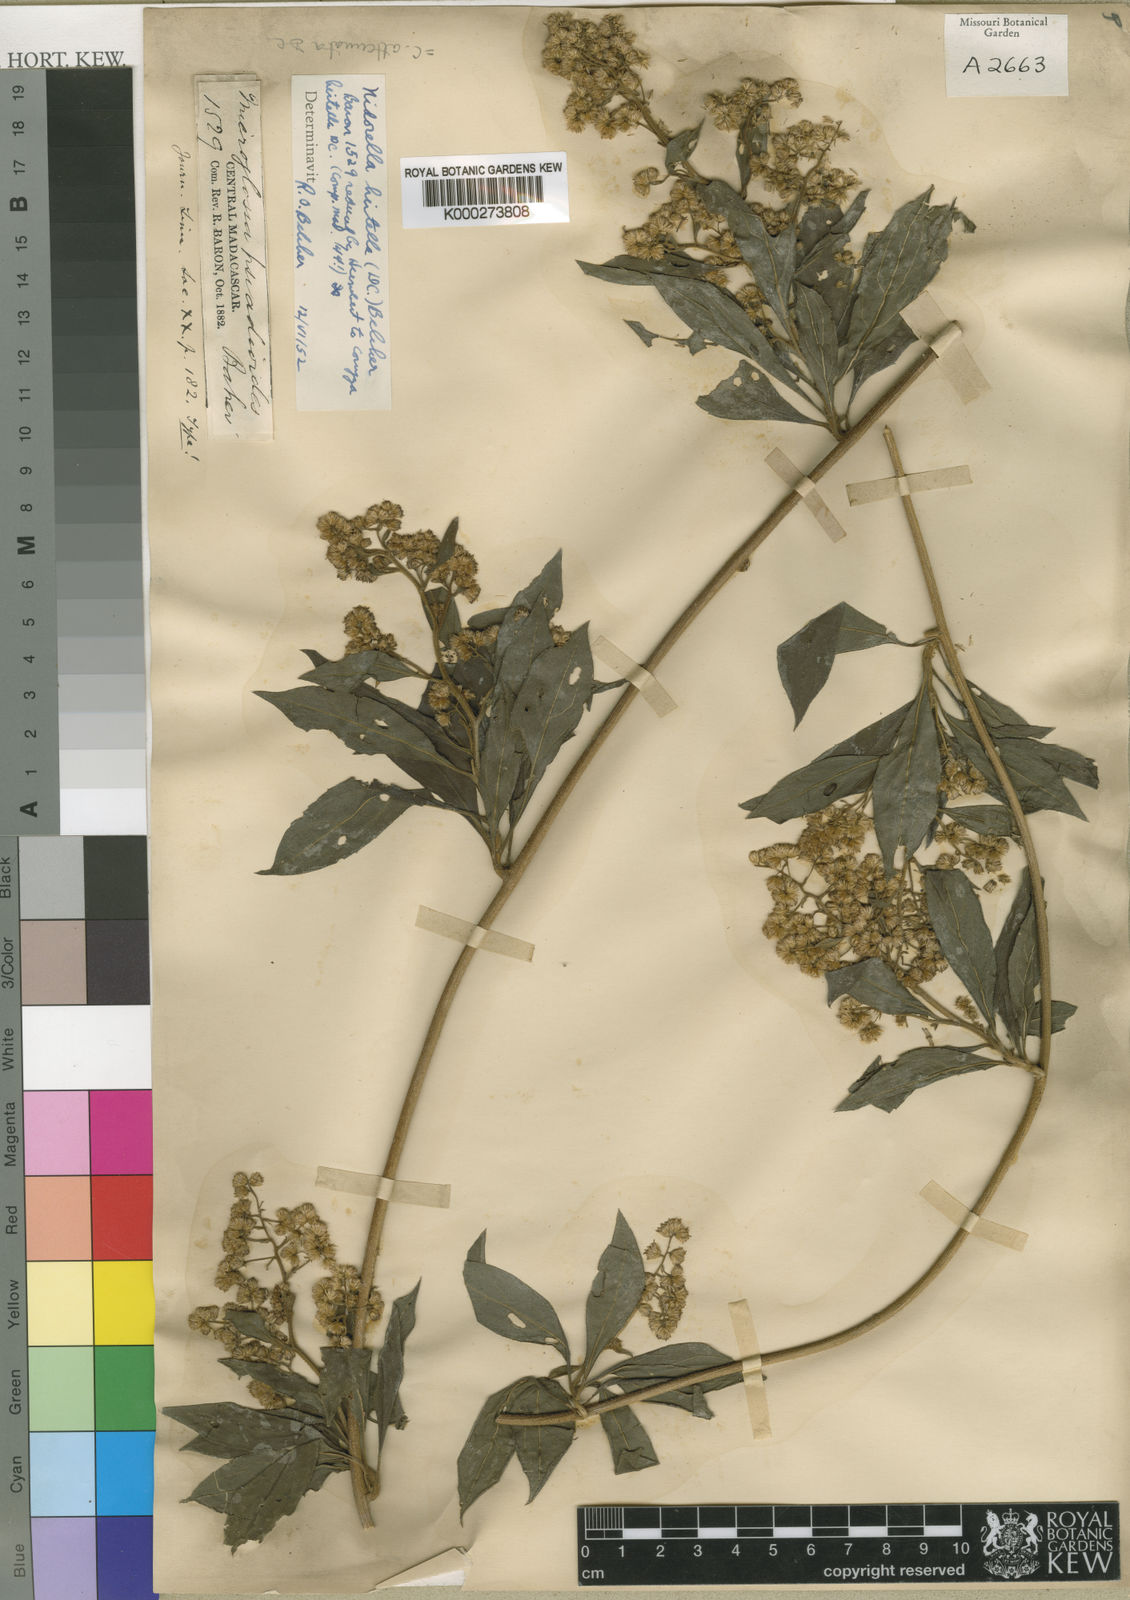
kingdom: Plantae
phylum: Tracheophyta
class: Magnoliopsida
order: Asterales
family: Asteraceae
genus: Microglossa
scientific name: Microglossa psiadioides
